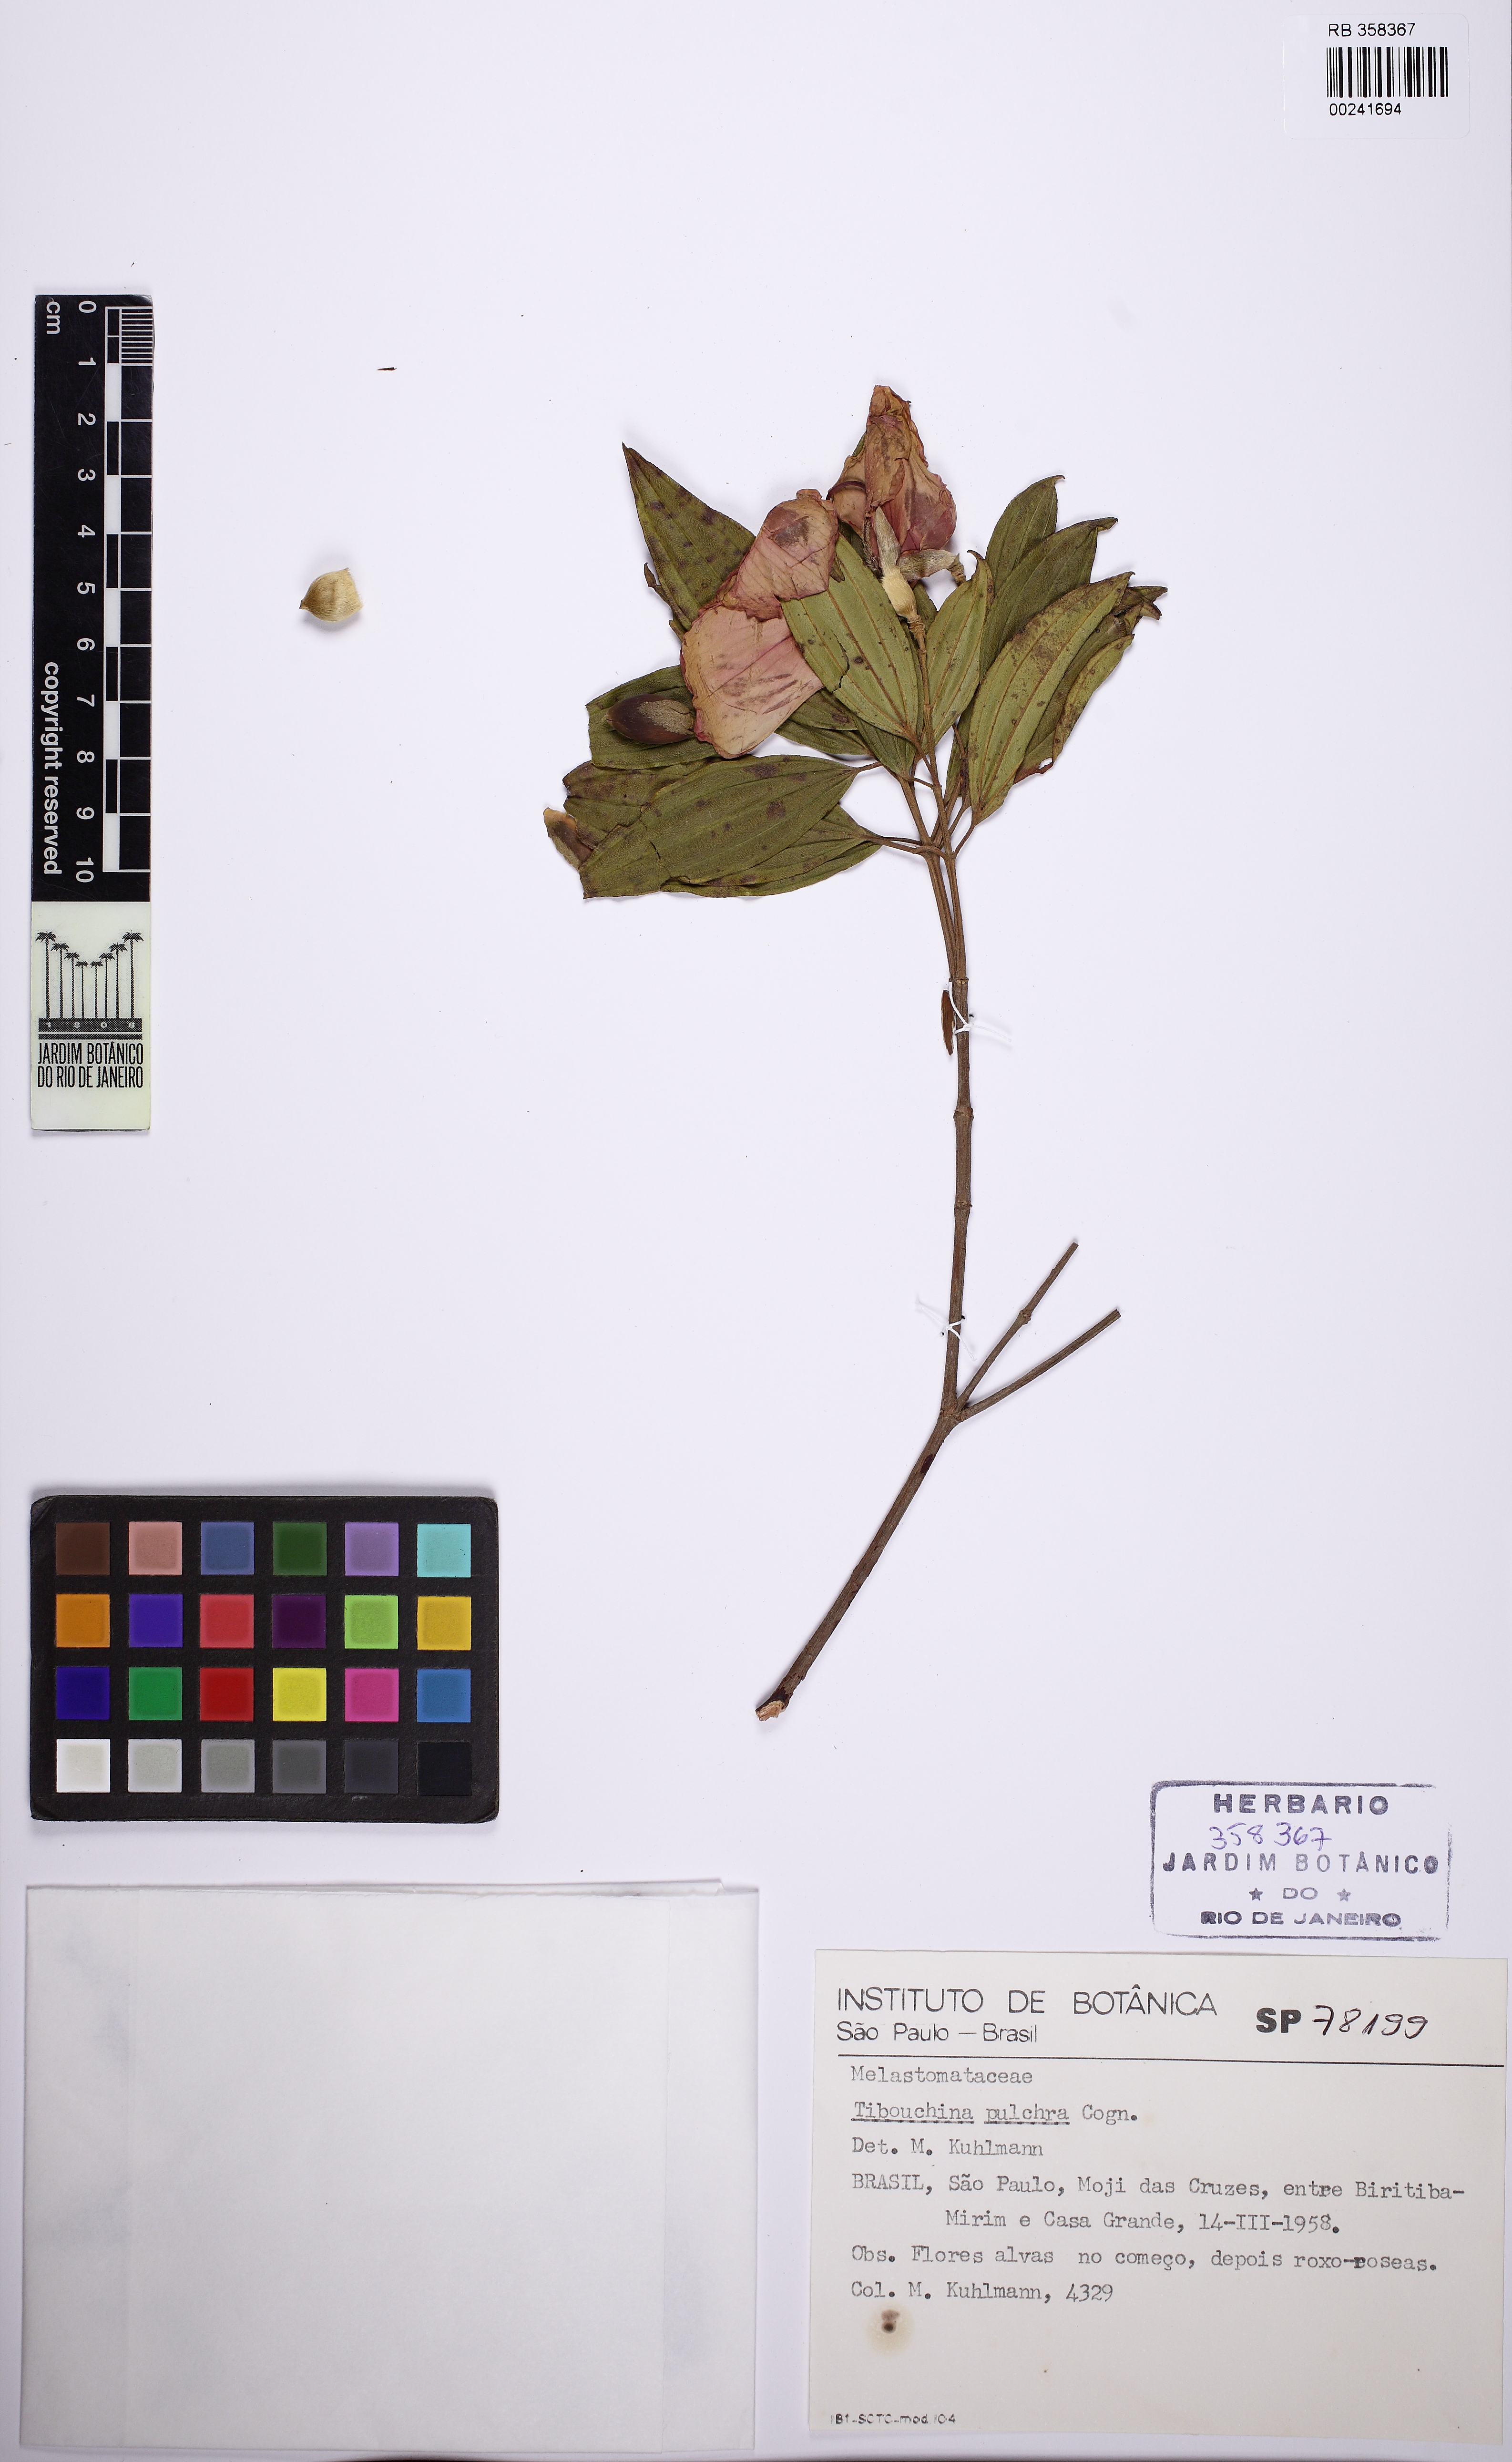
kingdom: Plantae
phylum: Tracheophyta
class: Magnoliopsida
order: Myrtales
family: Melastomataceae
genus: Pleroma
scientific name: Pleroma raddianum
